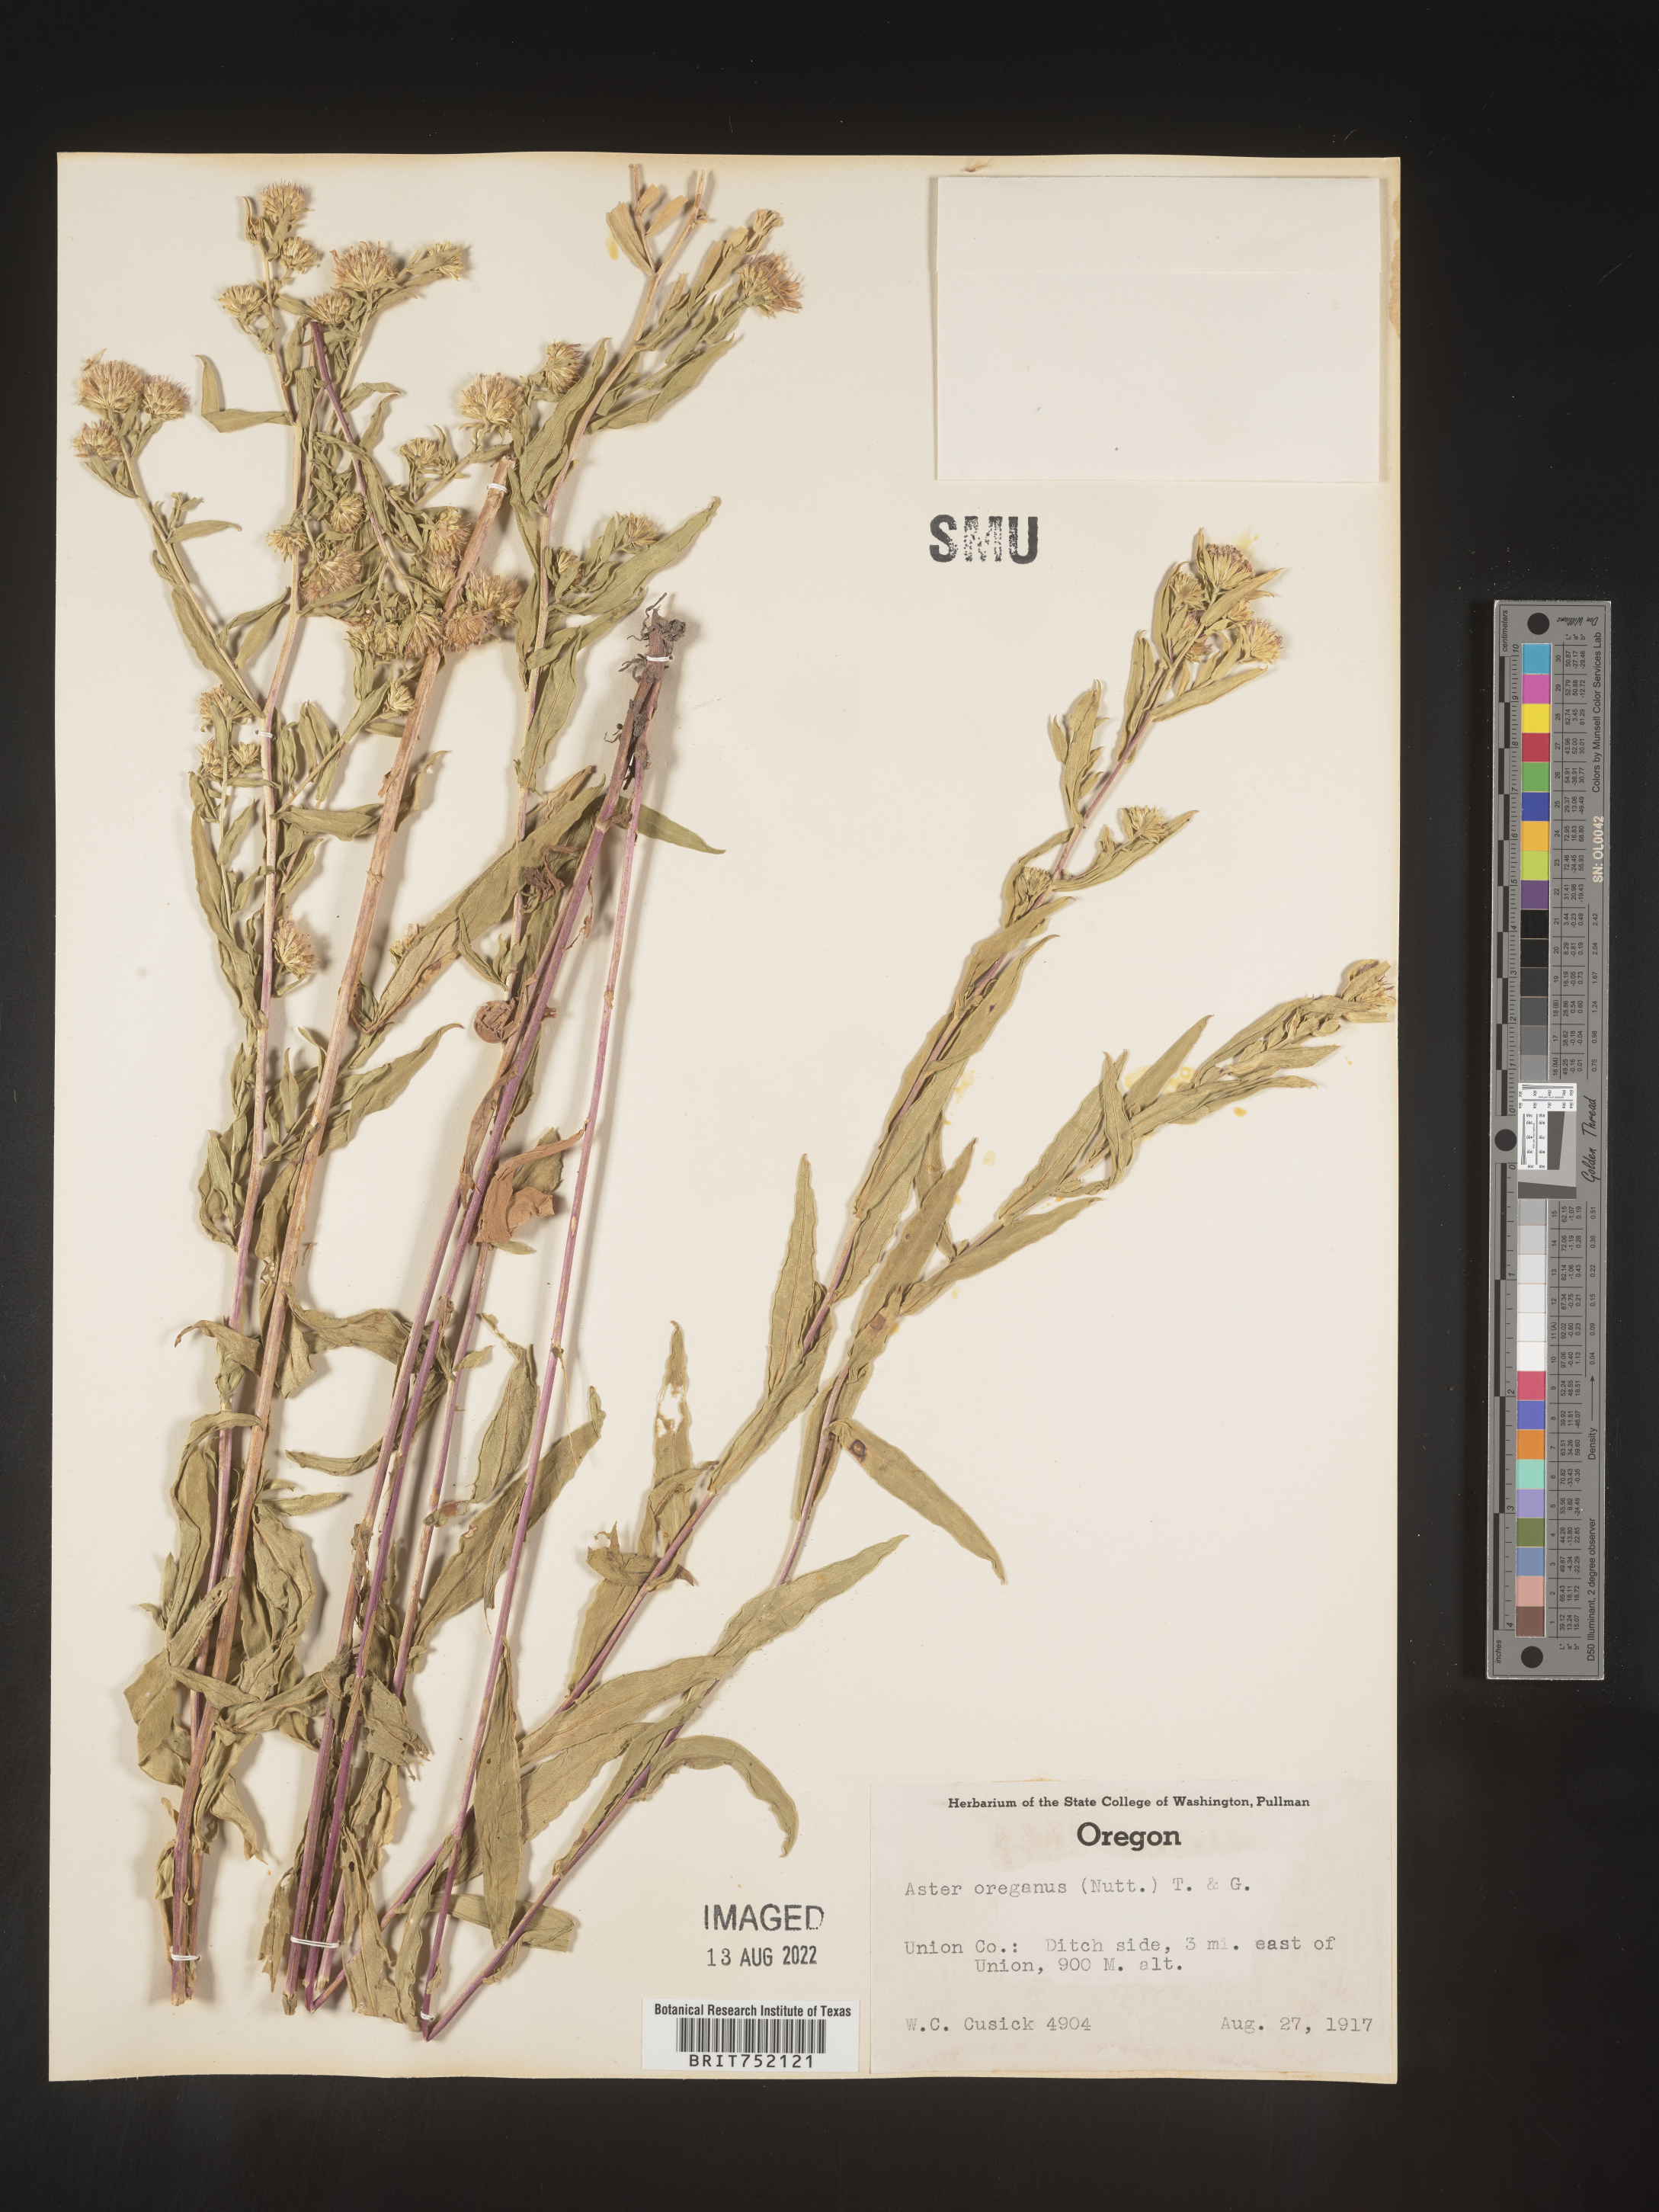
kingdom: Plantae
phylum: Tracheophyta
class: Magnoliopsida
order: Asterales
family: Asteraceae
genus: Sericocarpus
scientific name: Sericocarpus oregonensis
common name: Oregon white-top aster
